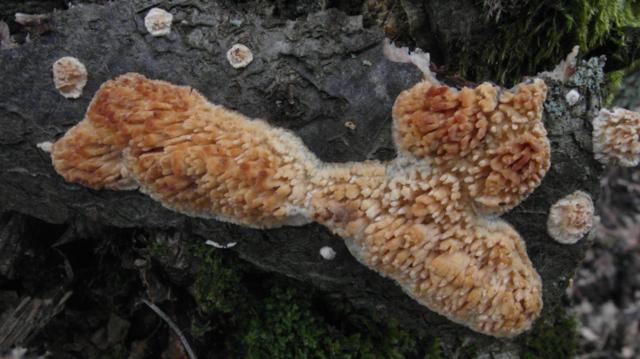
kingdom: Fungi
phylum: Basidiomycota
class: Agaricomycetes
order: Hymenochaetales
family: Schizoporaceae
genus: Xylodon
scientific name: Xylodon radula
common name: grovtandet kalkskind
